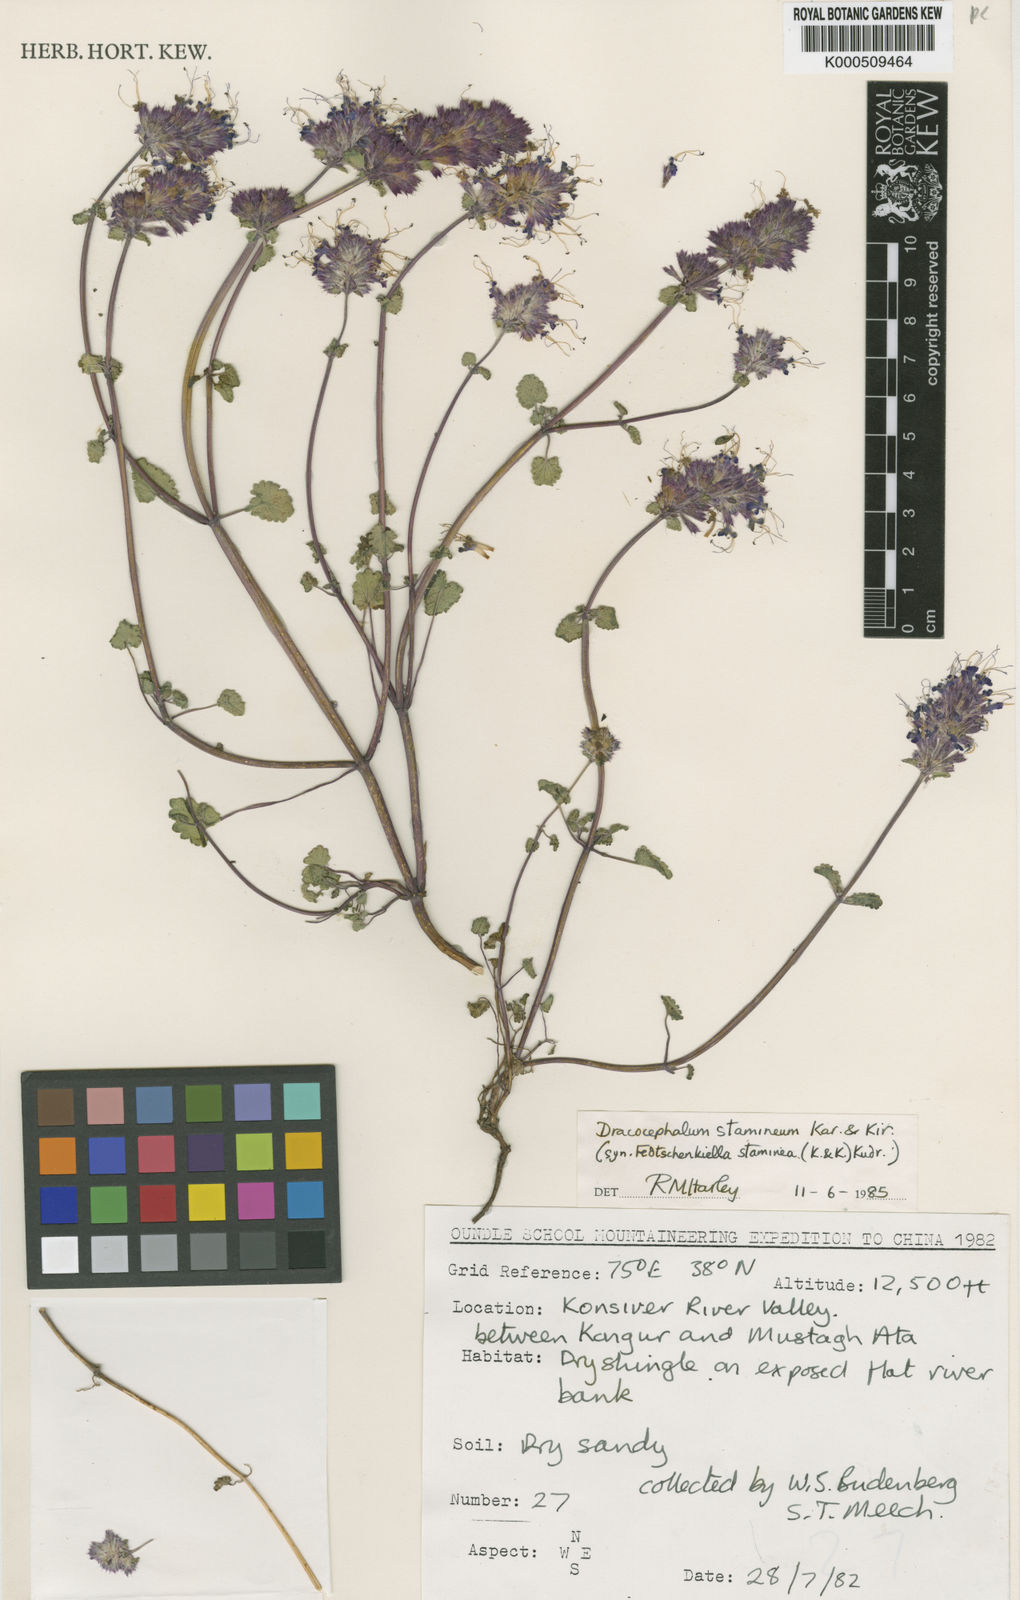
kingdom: Plantae
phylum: Tracheophyta
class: Magnoliopsida
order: Lamiales
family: Lamiaceae
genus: Dracocephalum
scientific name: Dracocephalum stamineum
